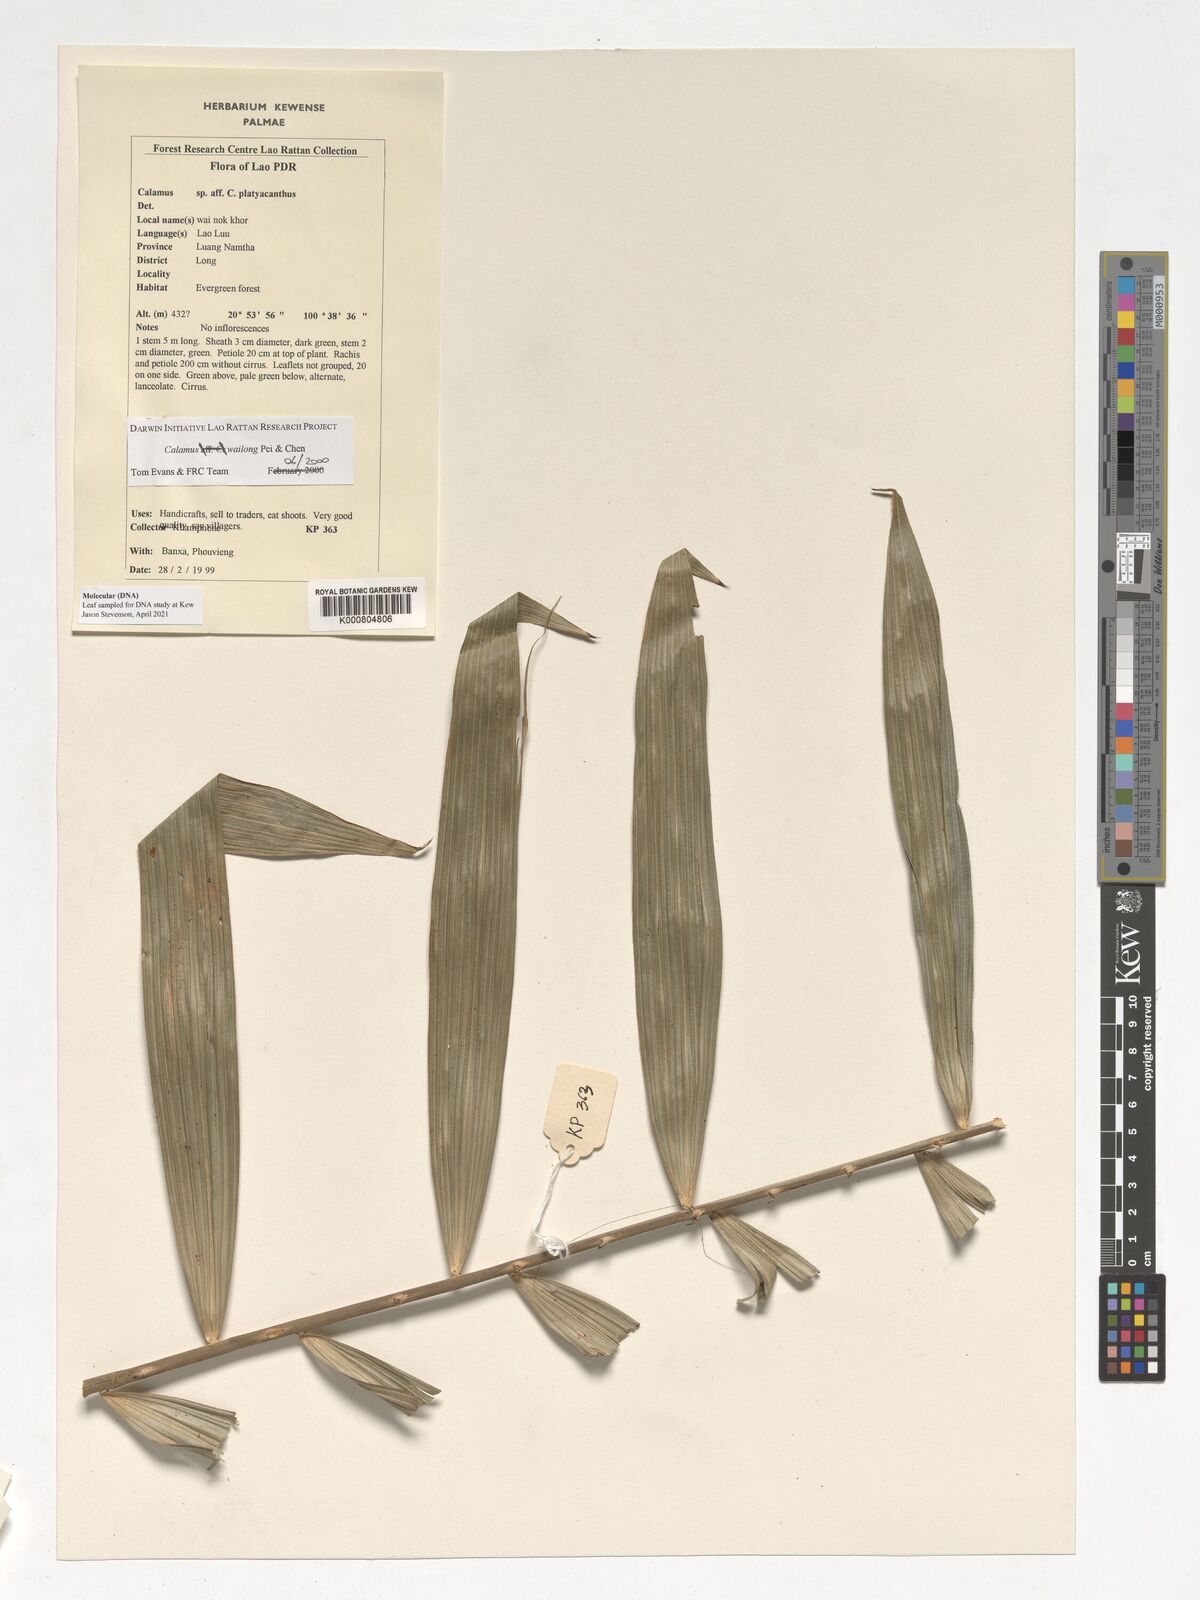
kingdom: Plantae
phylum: Tracheophyta
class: Liliopsida
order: Arecales
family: Arecaceae
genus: Calamus
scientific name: Calamus inermis
